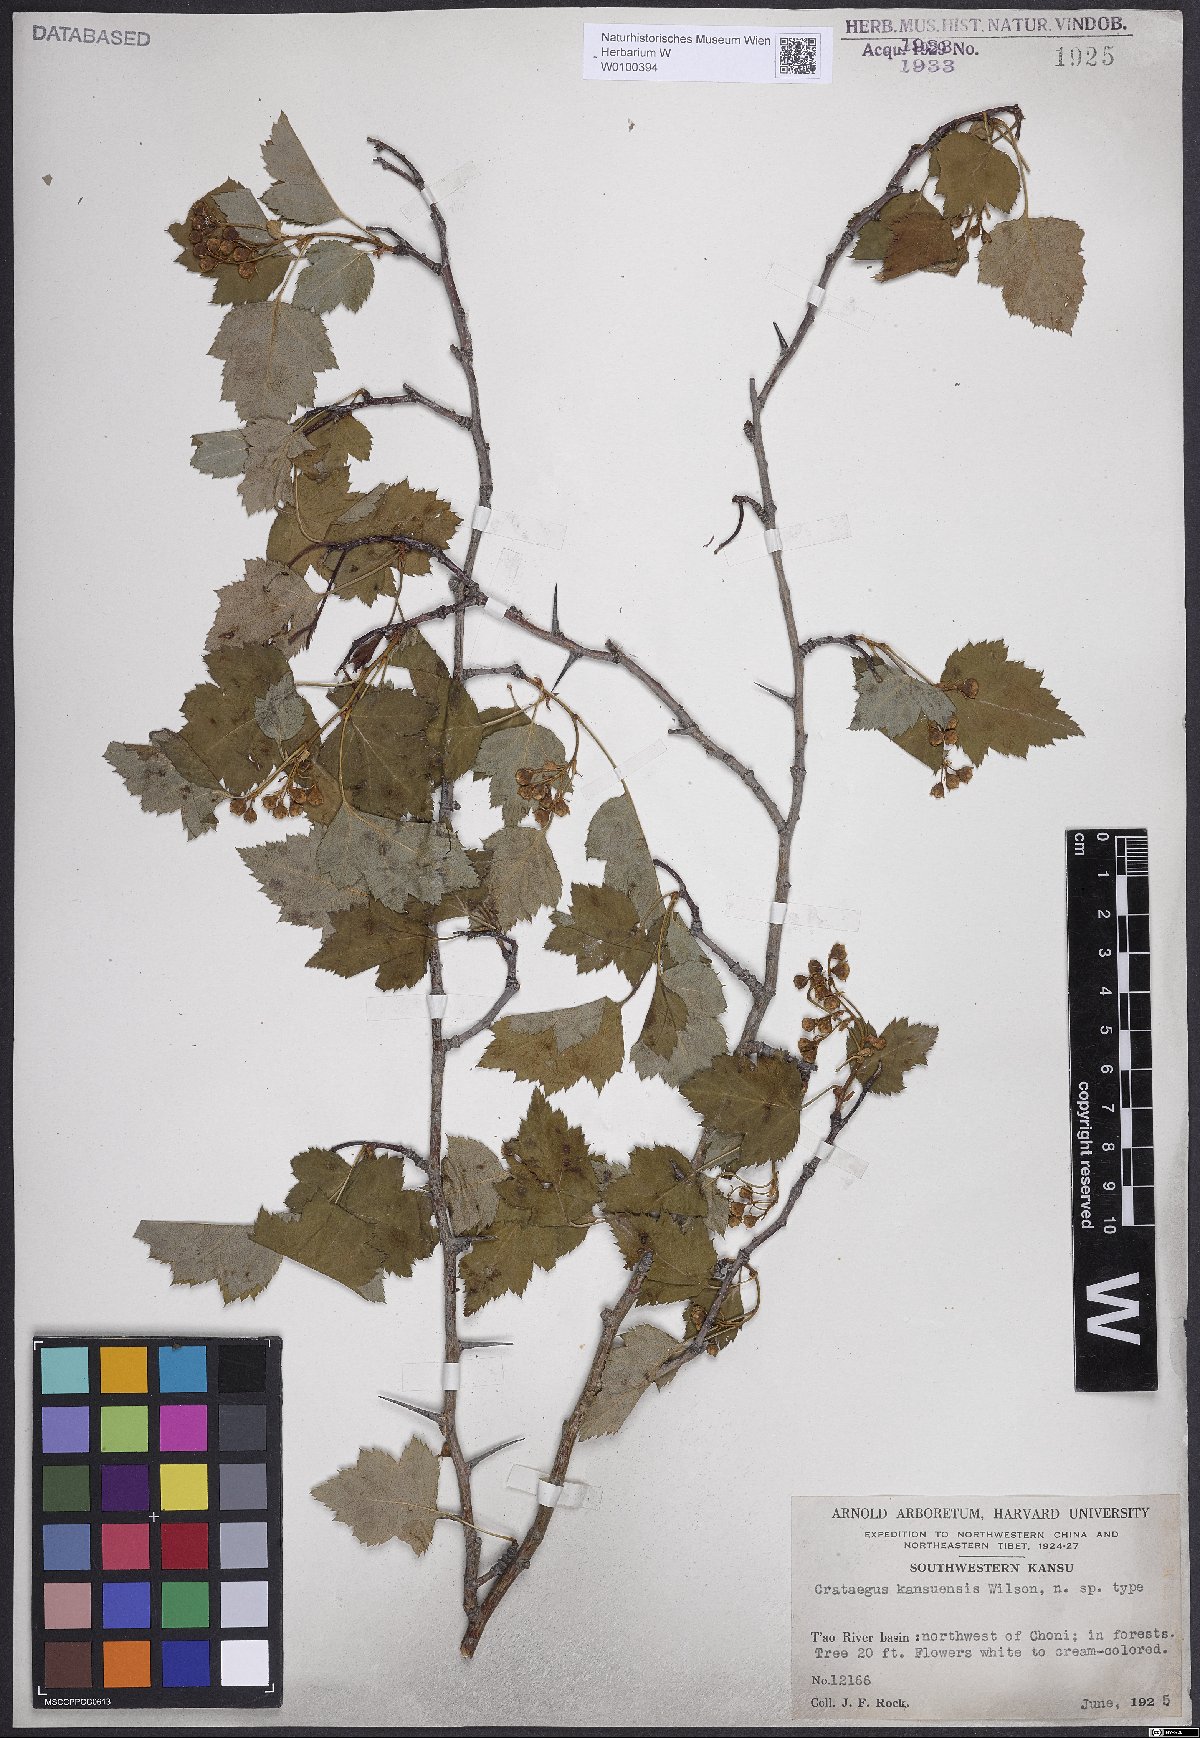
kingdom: Plantae
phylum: Tracheophyta
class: Magnoliopsida
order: Rosales
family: Rosaceae
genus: Crataegus
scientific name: Crataegus kansuensis
